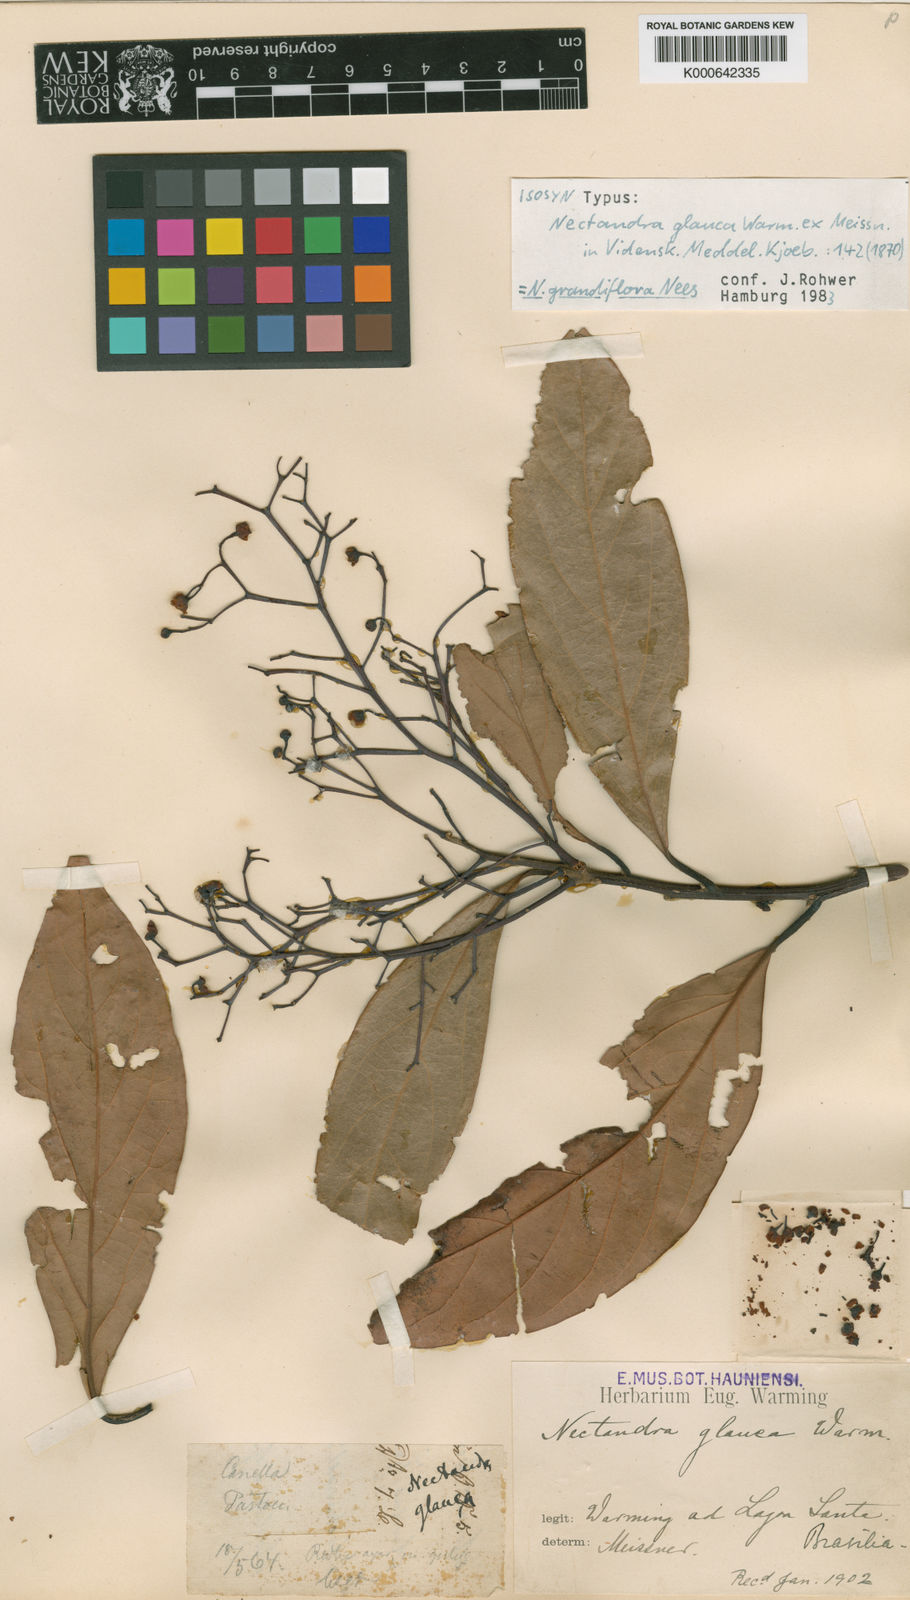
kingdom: Plantae
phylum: Tracheophyta
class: Magnoliopsida
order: Laurales
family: Lauraceae
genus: Nectandra
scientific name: Nectandra
